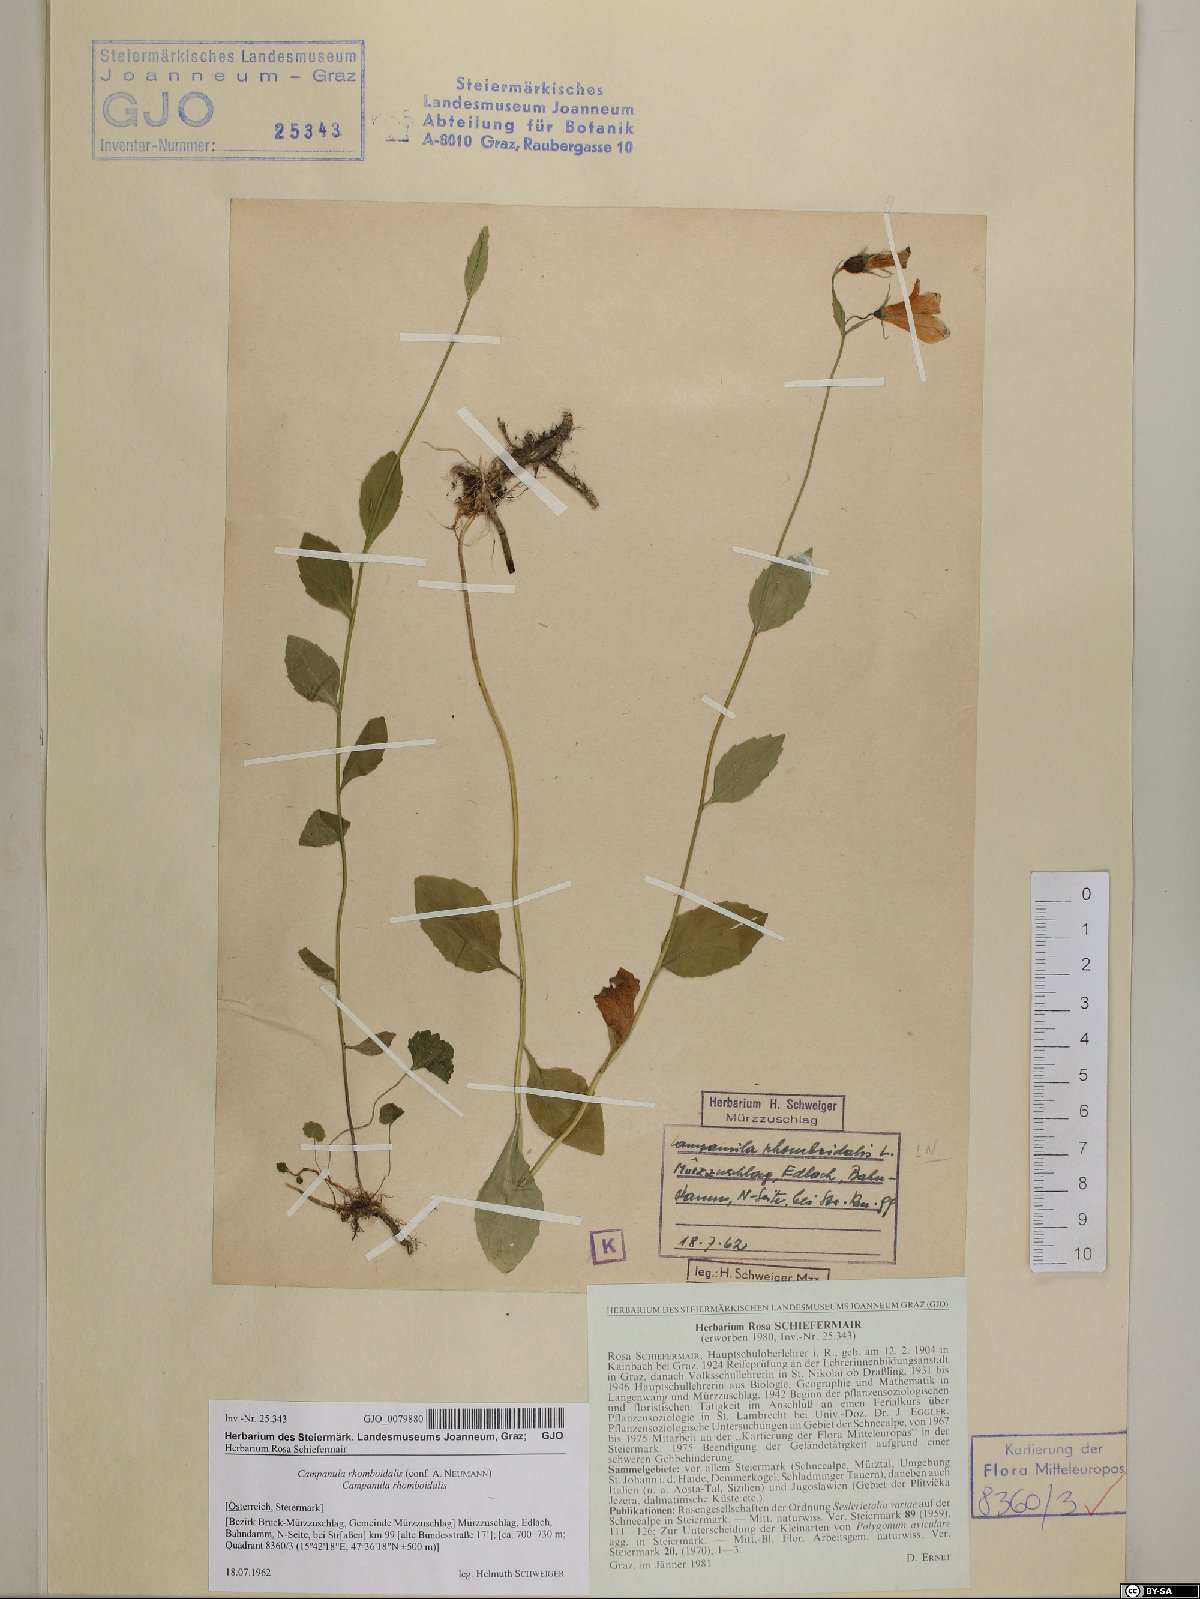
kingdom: Plantae
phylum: Tracheophyta
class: Magnoliopsida
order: Asterales
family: Campanulaceae
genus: Campanula
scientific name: Campanula rhomboidalis
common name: Broad-leaved harebell
